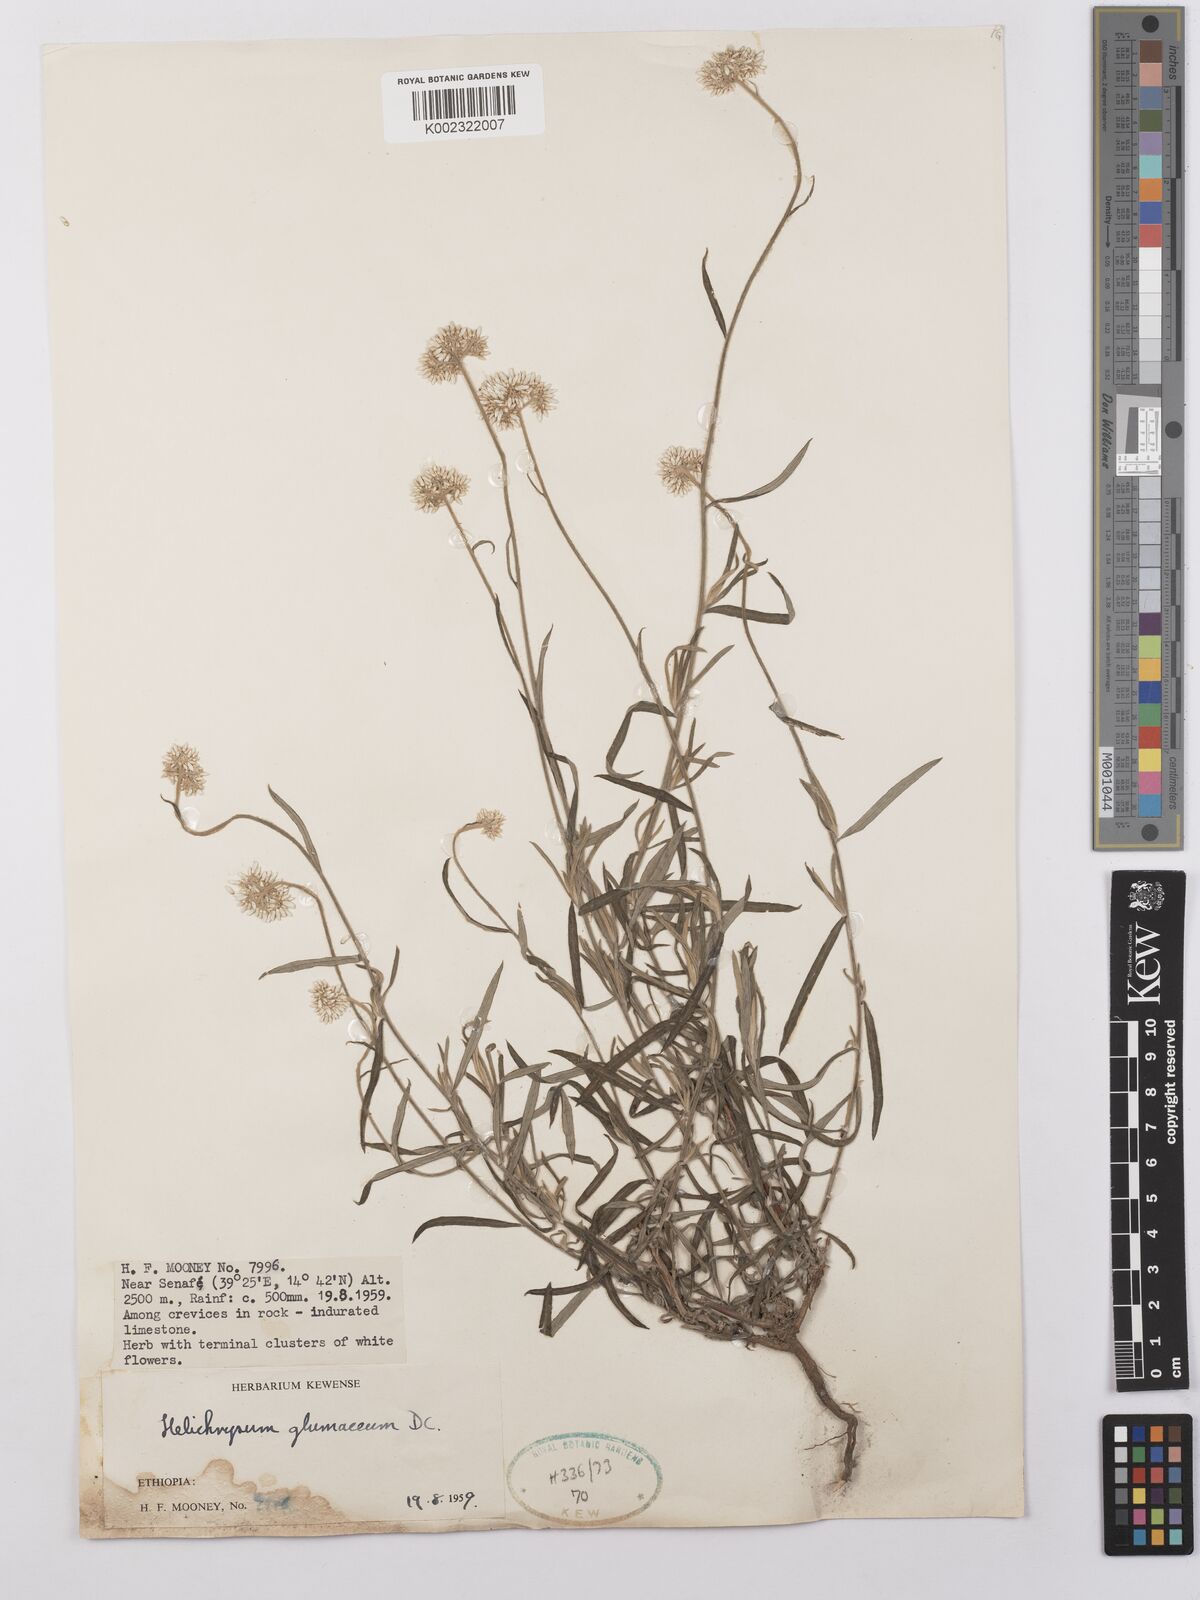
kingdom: Plantae
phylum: Tracheophyta
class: Magnoliopsida
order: Asterales
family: Asteraceae
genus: Helichrysum
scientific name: Helichrysum glumaceum
